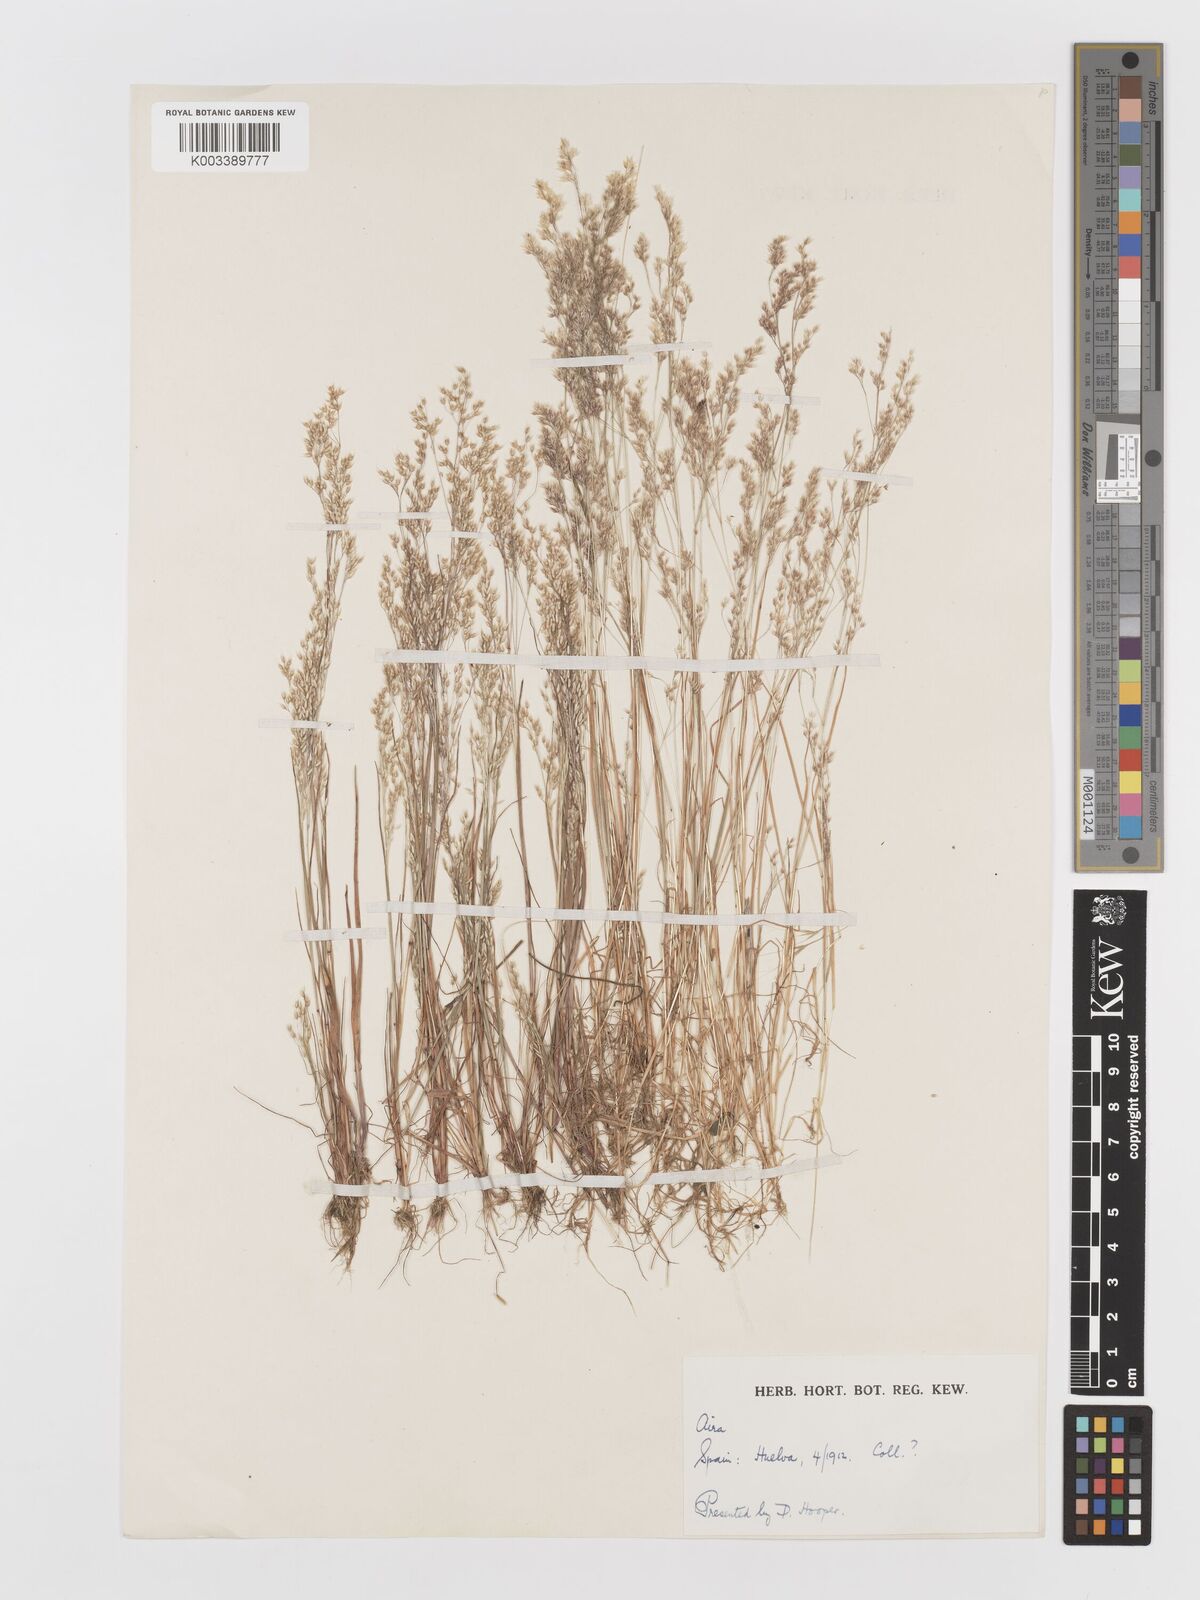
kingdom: Plantae
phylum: Tracheophyta
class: Liliopsida
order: Poales
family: Poaceae
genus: Aira
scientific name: Aira cupaniana
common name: Silver hairgrass
